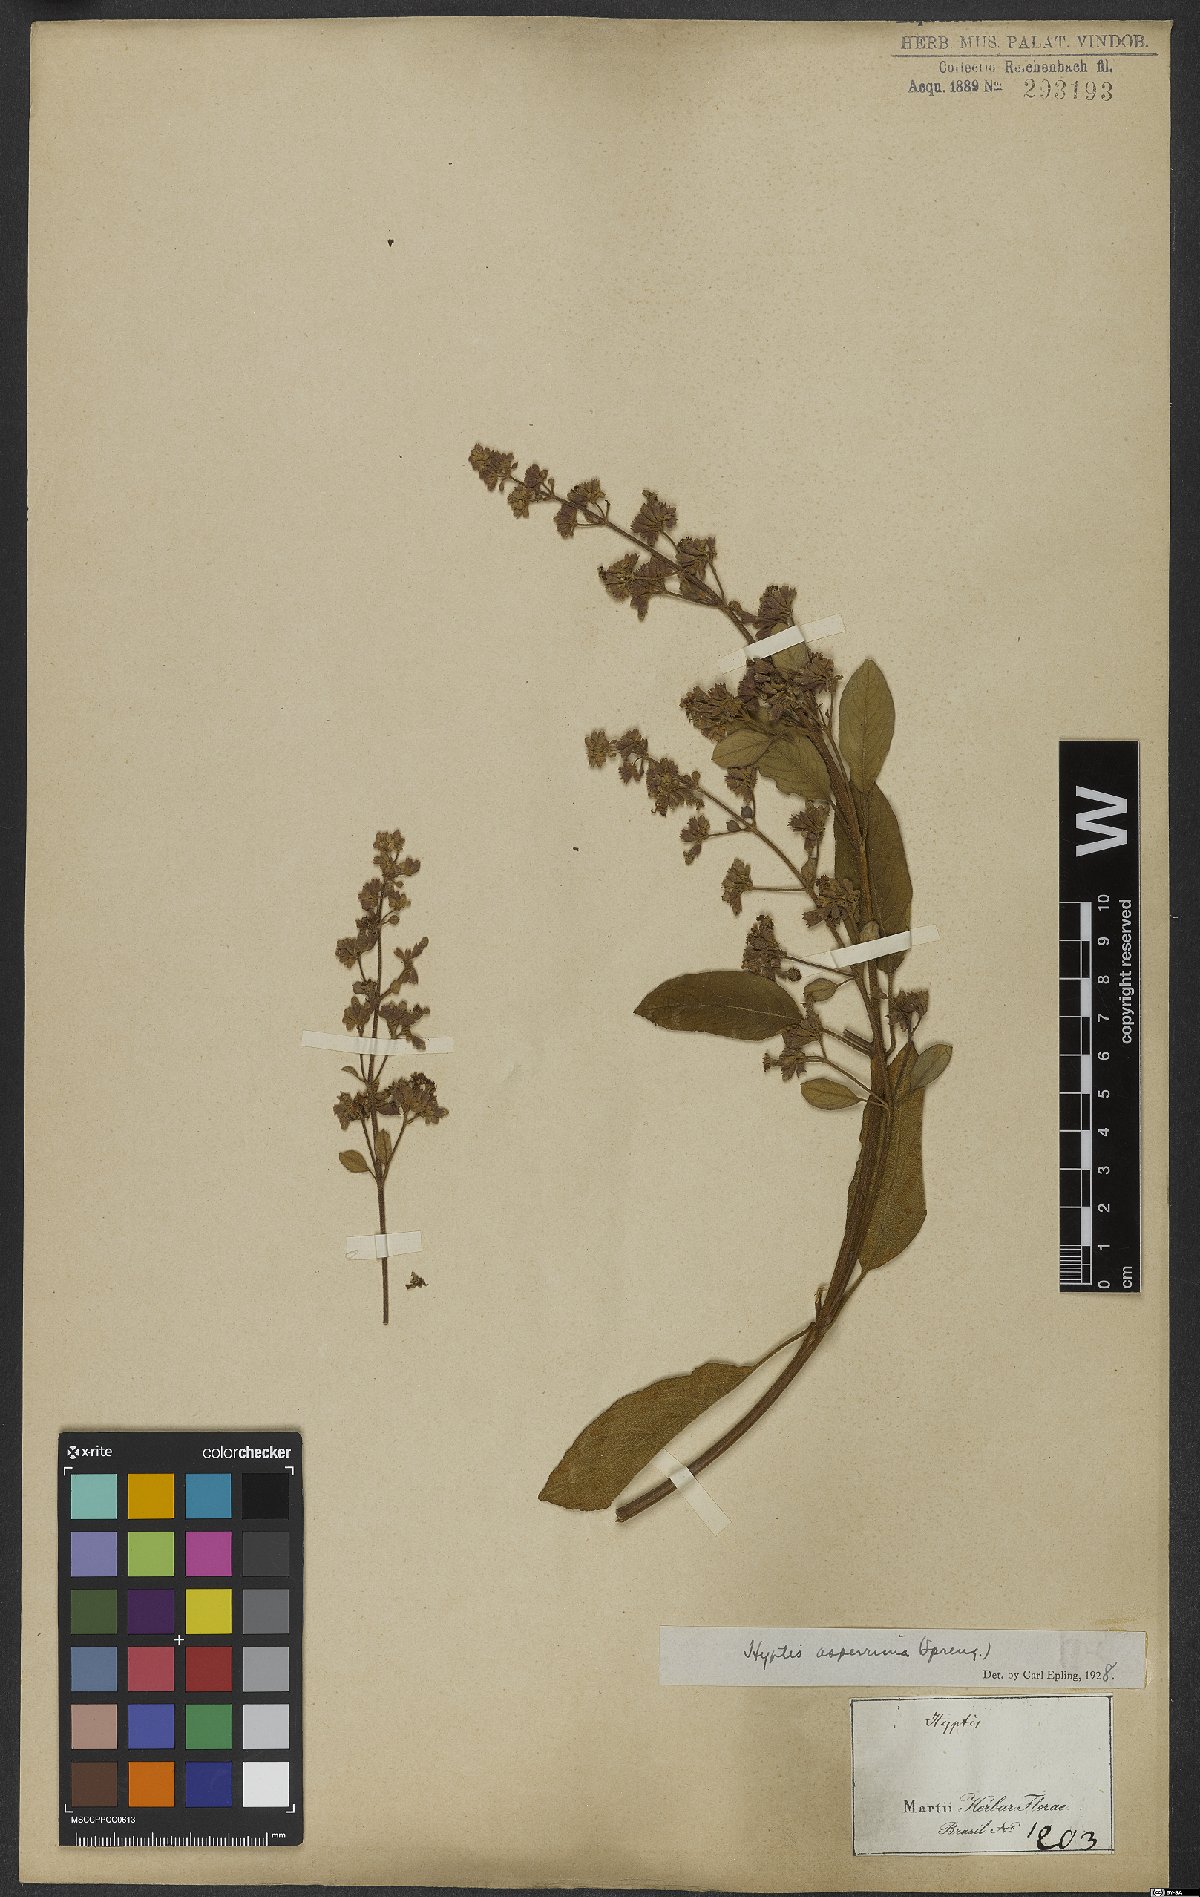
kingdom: Plantae
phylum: Tracheophyta
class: Magnoliopsida
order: Lamiales
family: Lamiaceae
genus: Hyptidendron
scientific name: Hyptidendron asperrimum
